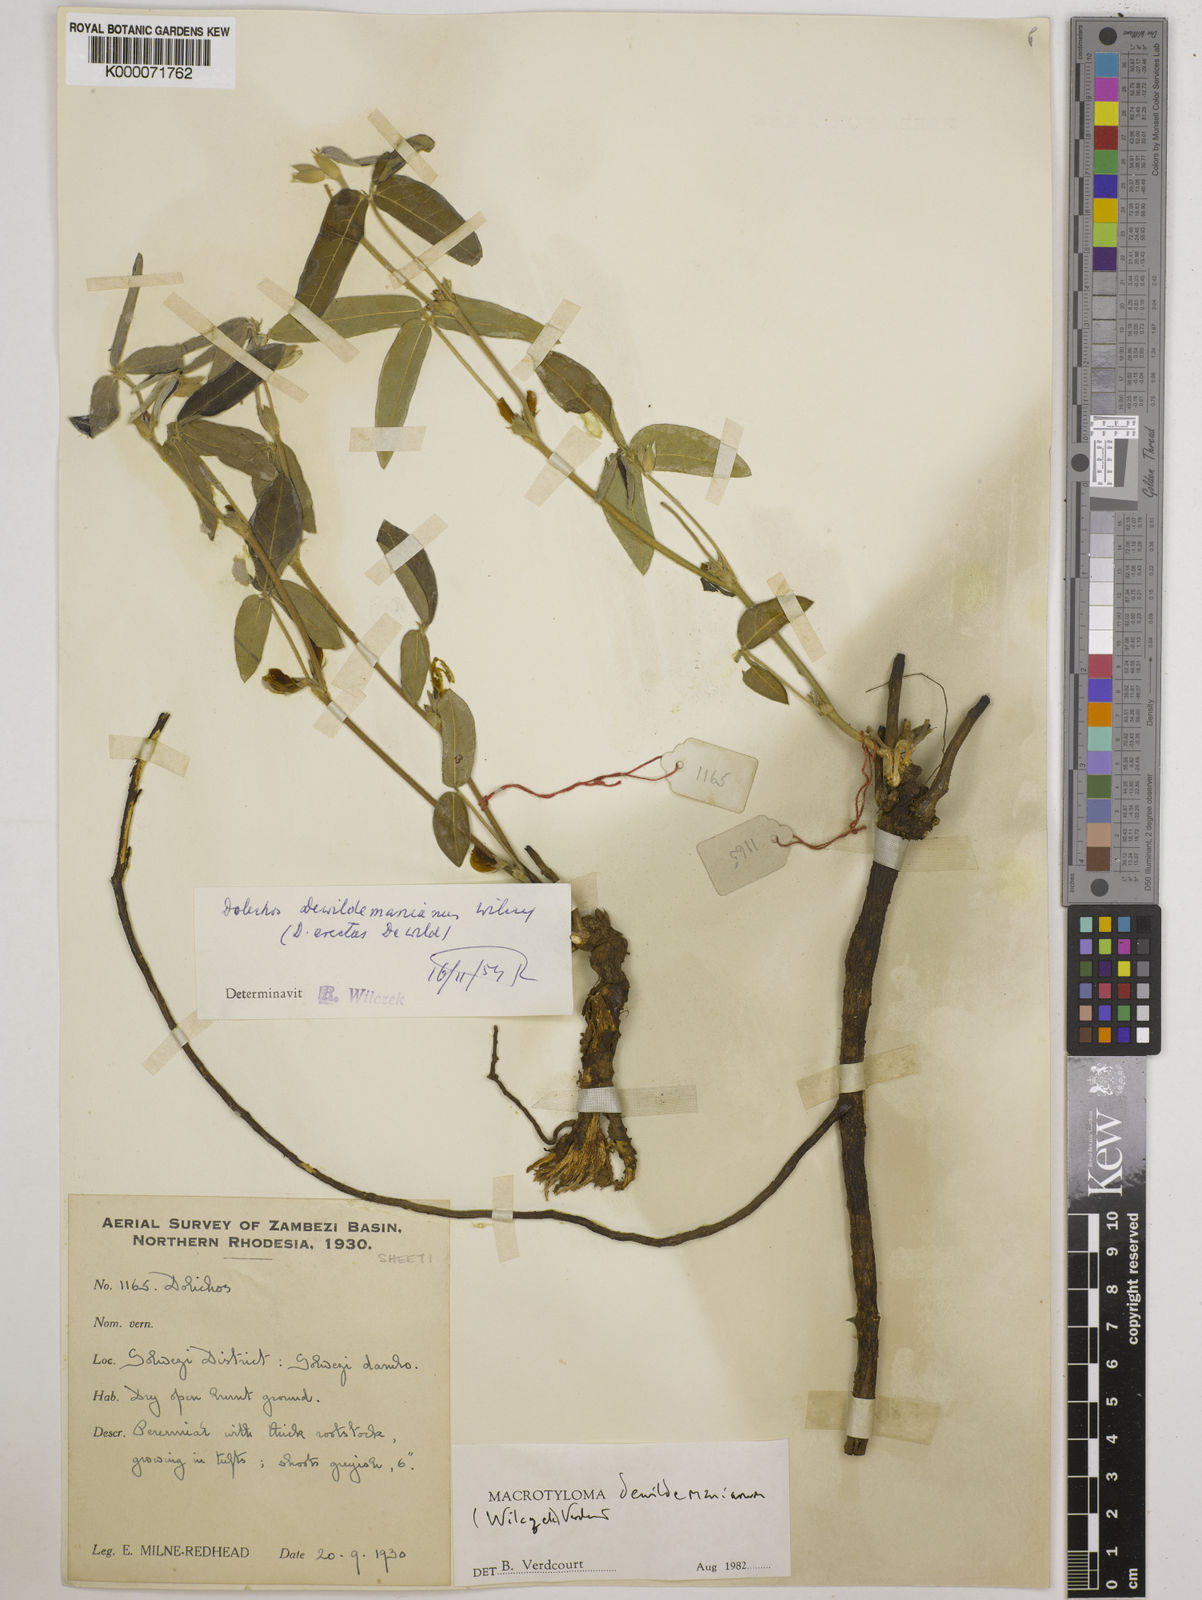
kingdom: Plantae
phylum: Tracheophyta
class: Magnoliopsida
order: Fabales
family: Fabaceae
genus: Macrotyloma
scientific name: Macrotyloma dewildemanianum
